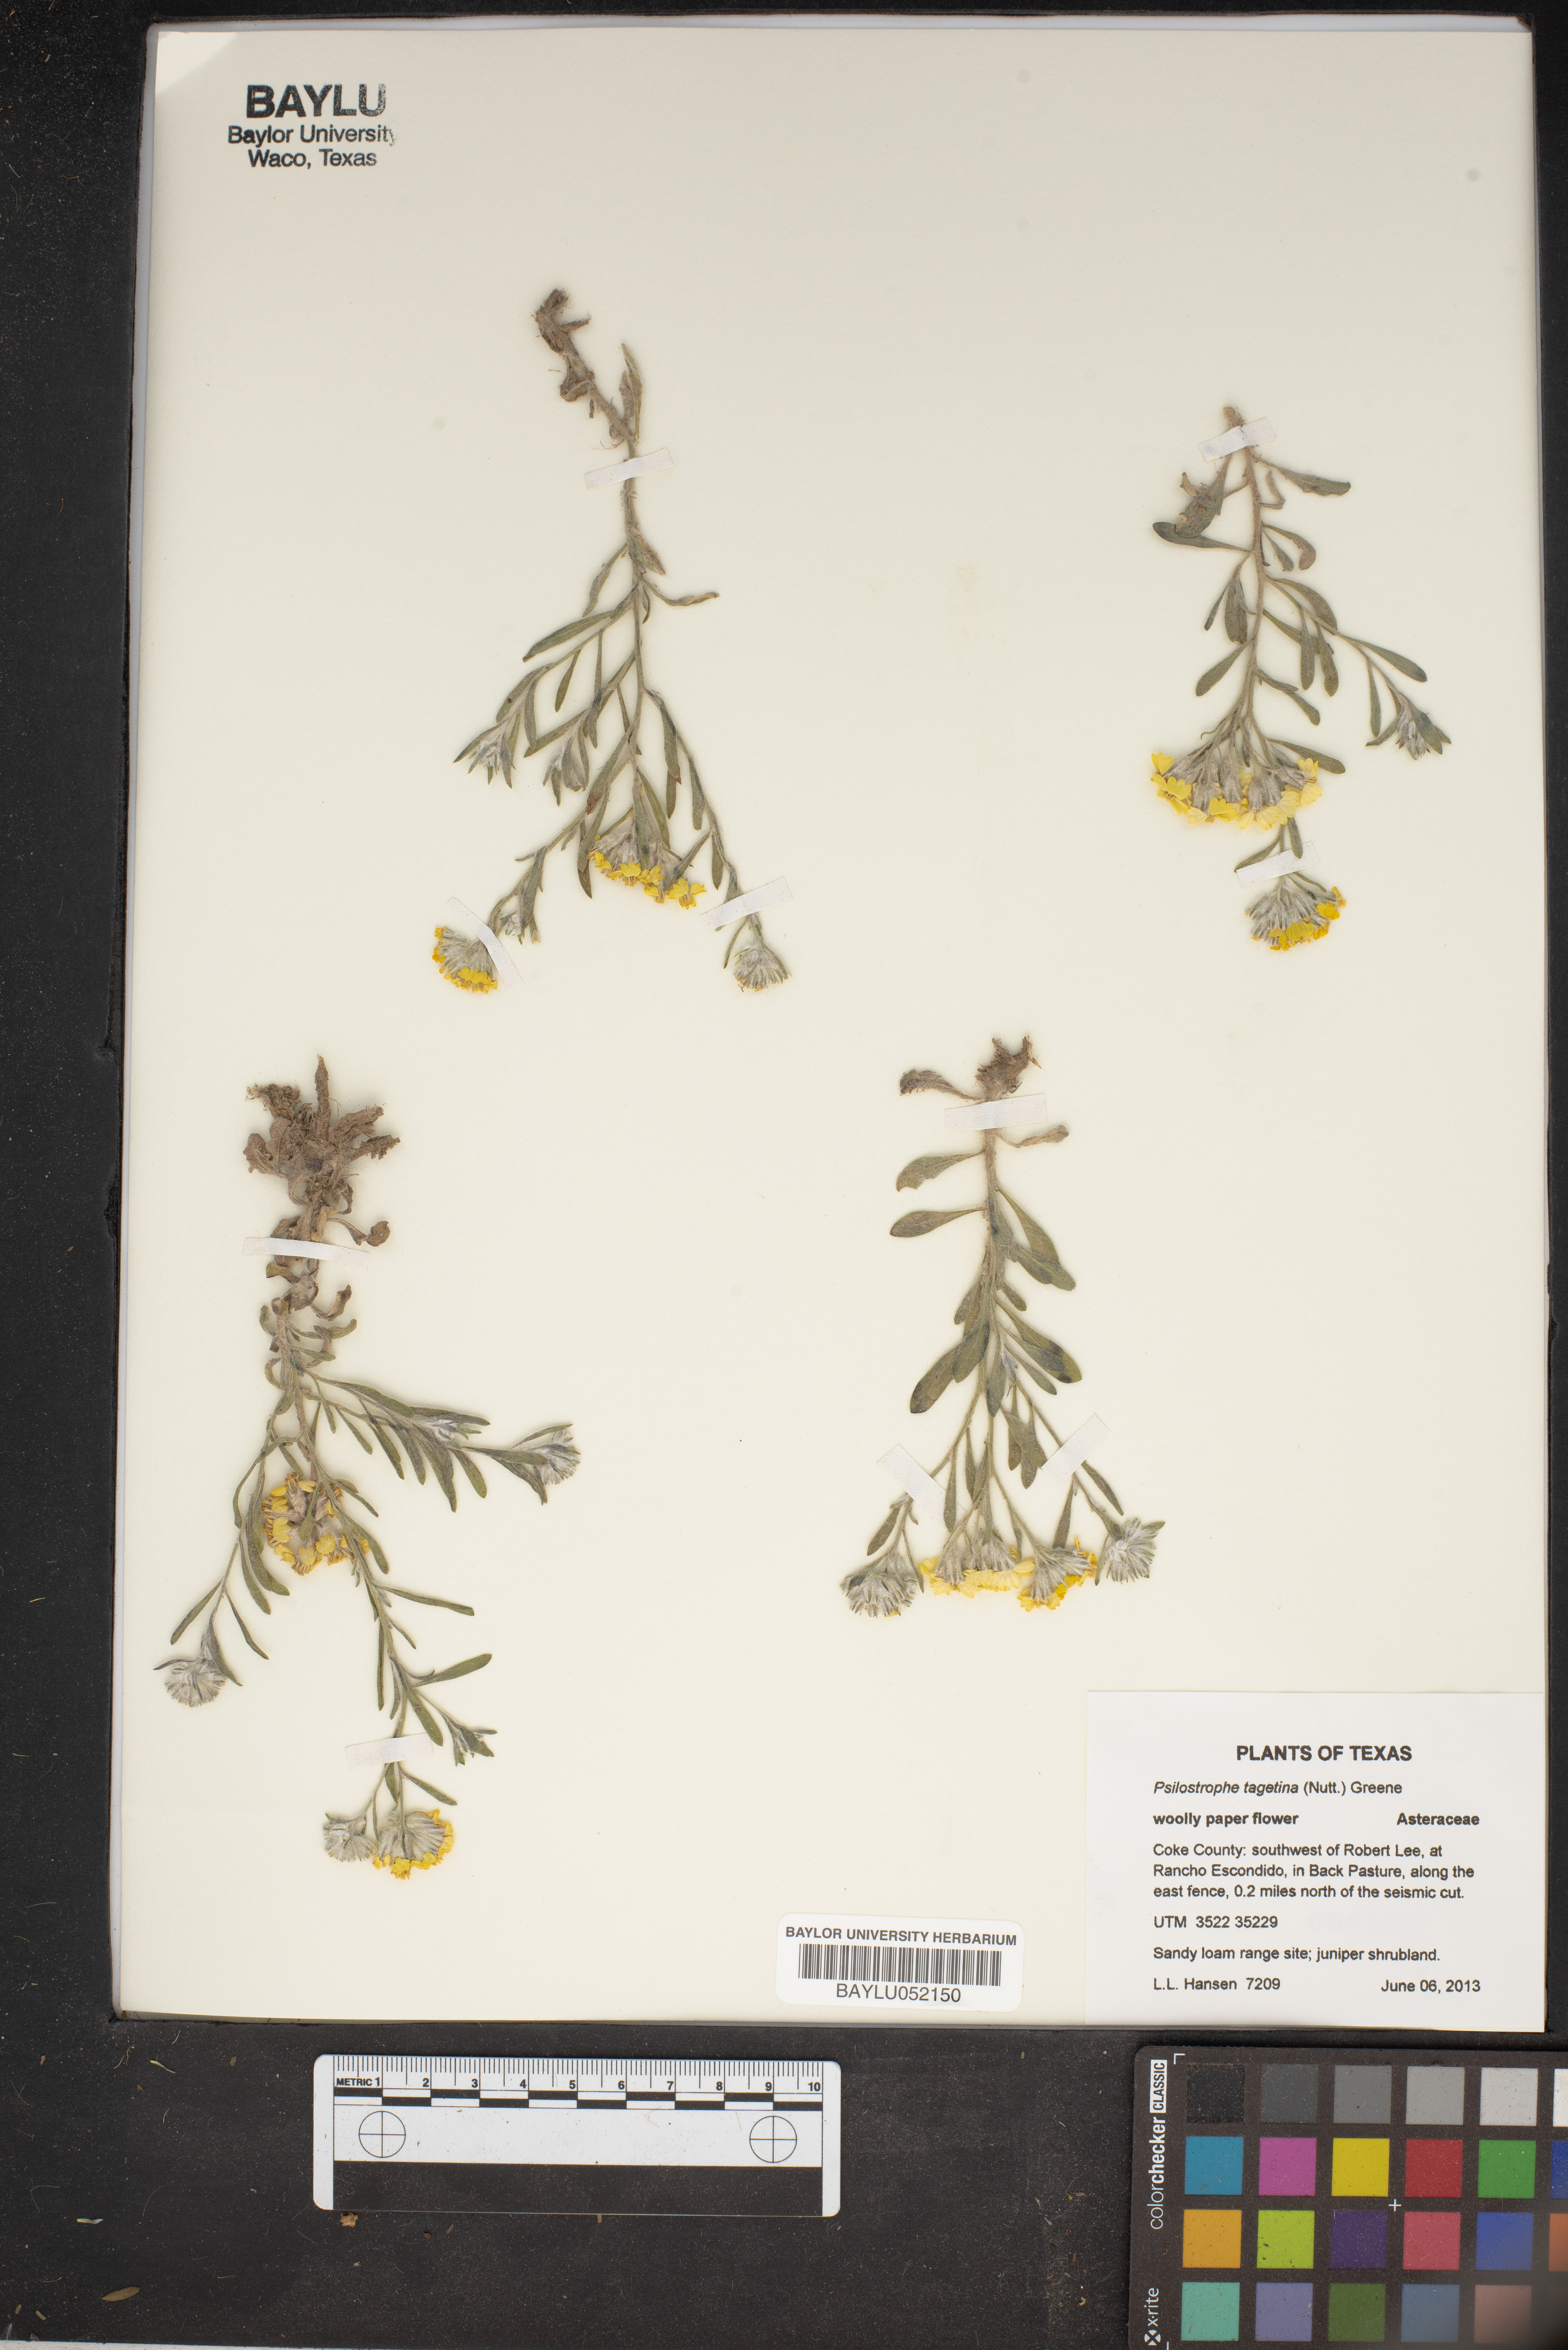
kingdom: Plantae
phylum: Tracheophyta
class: Magnoliopsida
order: Asterales
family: Asteraceae
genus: Psilostrophe
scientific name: Psilostrophe tagetina
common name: Marigold paper-flower
